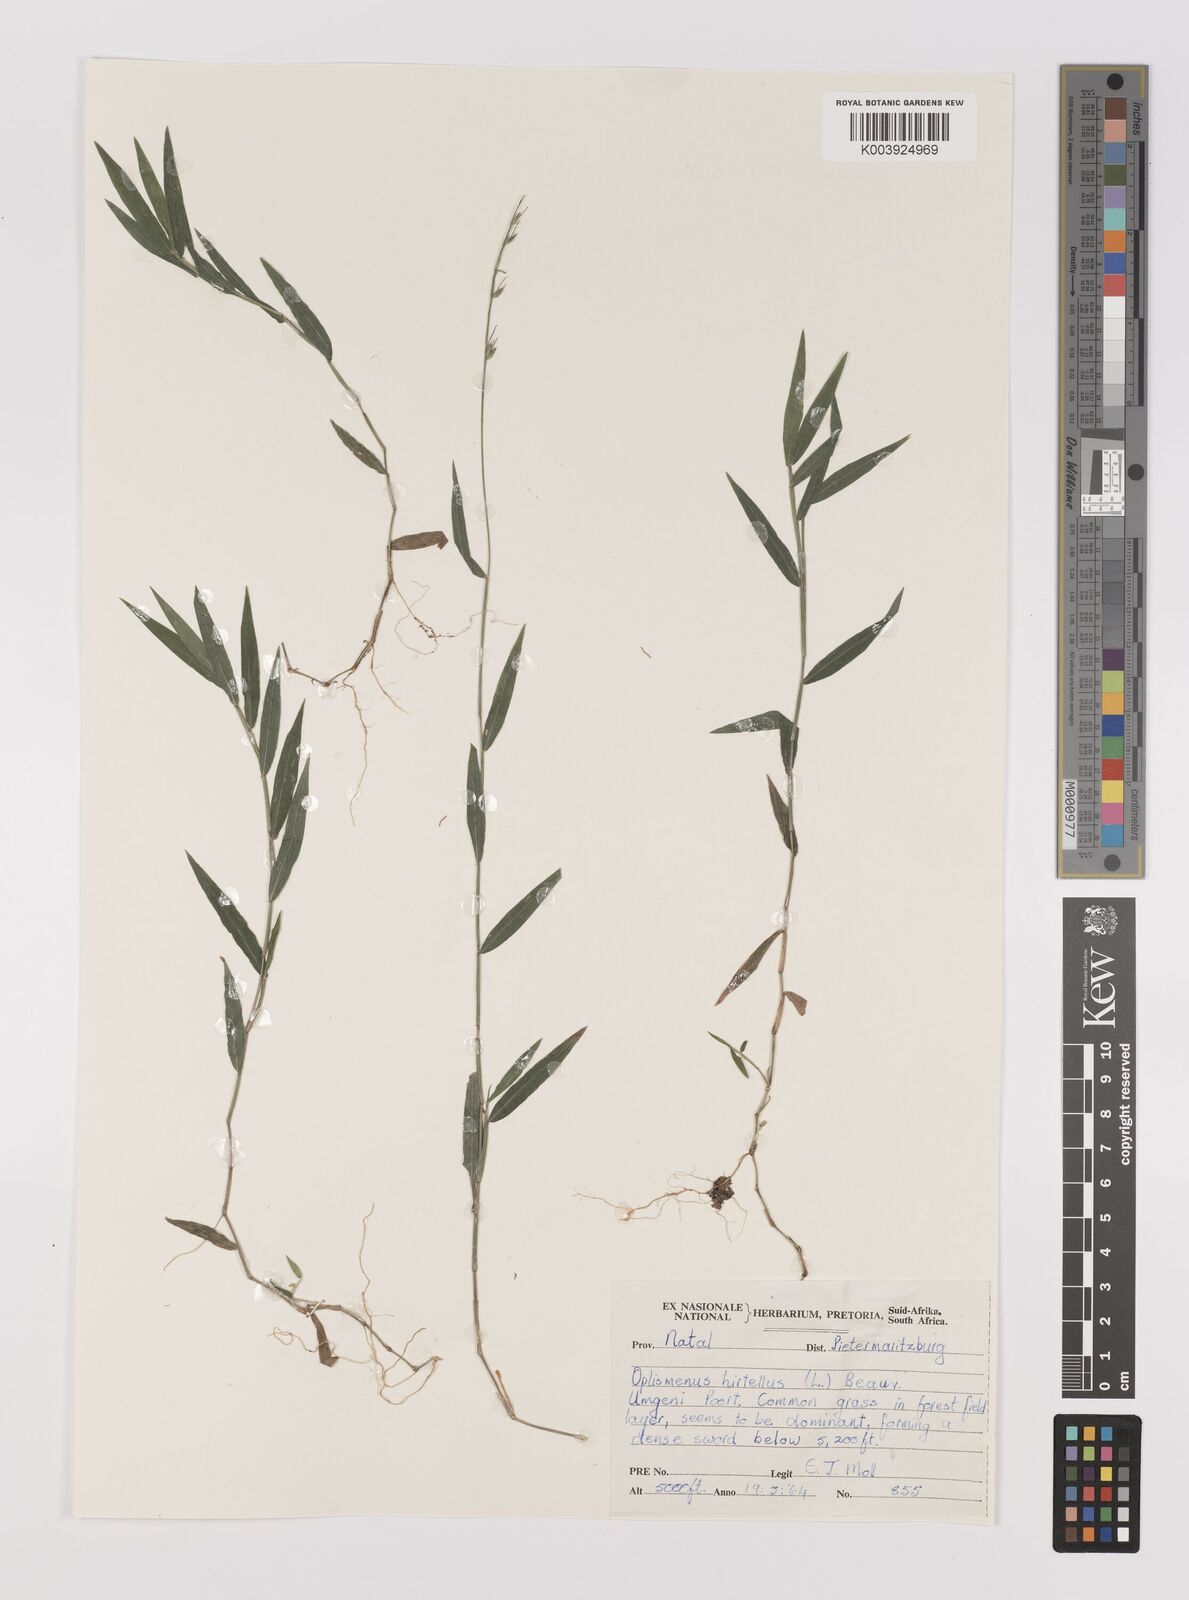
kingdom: Plantae
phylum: Tracheophyta
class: Liliopsida
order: Poales
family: Poaceae
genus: Oplismenus
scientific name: Oplismenus hirtellus
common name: Basketgrass
